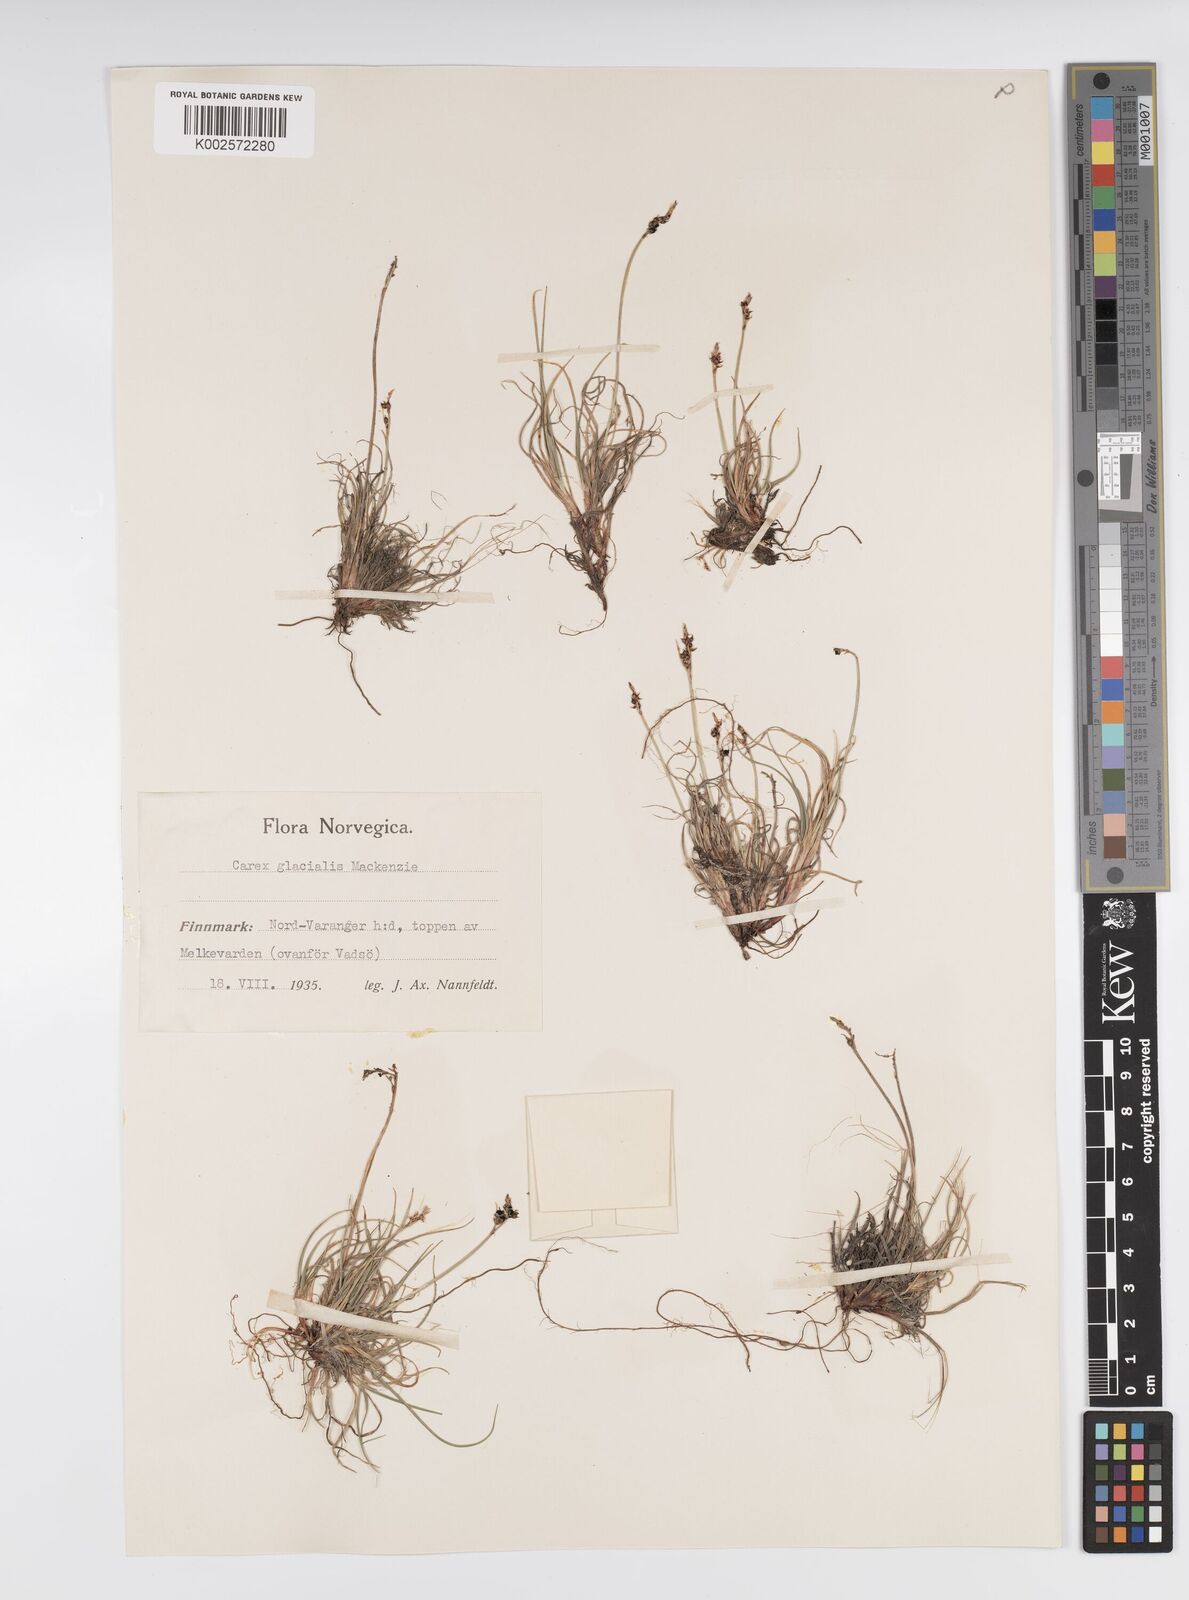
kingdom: Plantae
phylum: Tracheophyta
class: Liliopsida
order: Poales
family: Cyperaceae
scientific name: Cyperaceae
